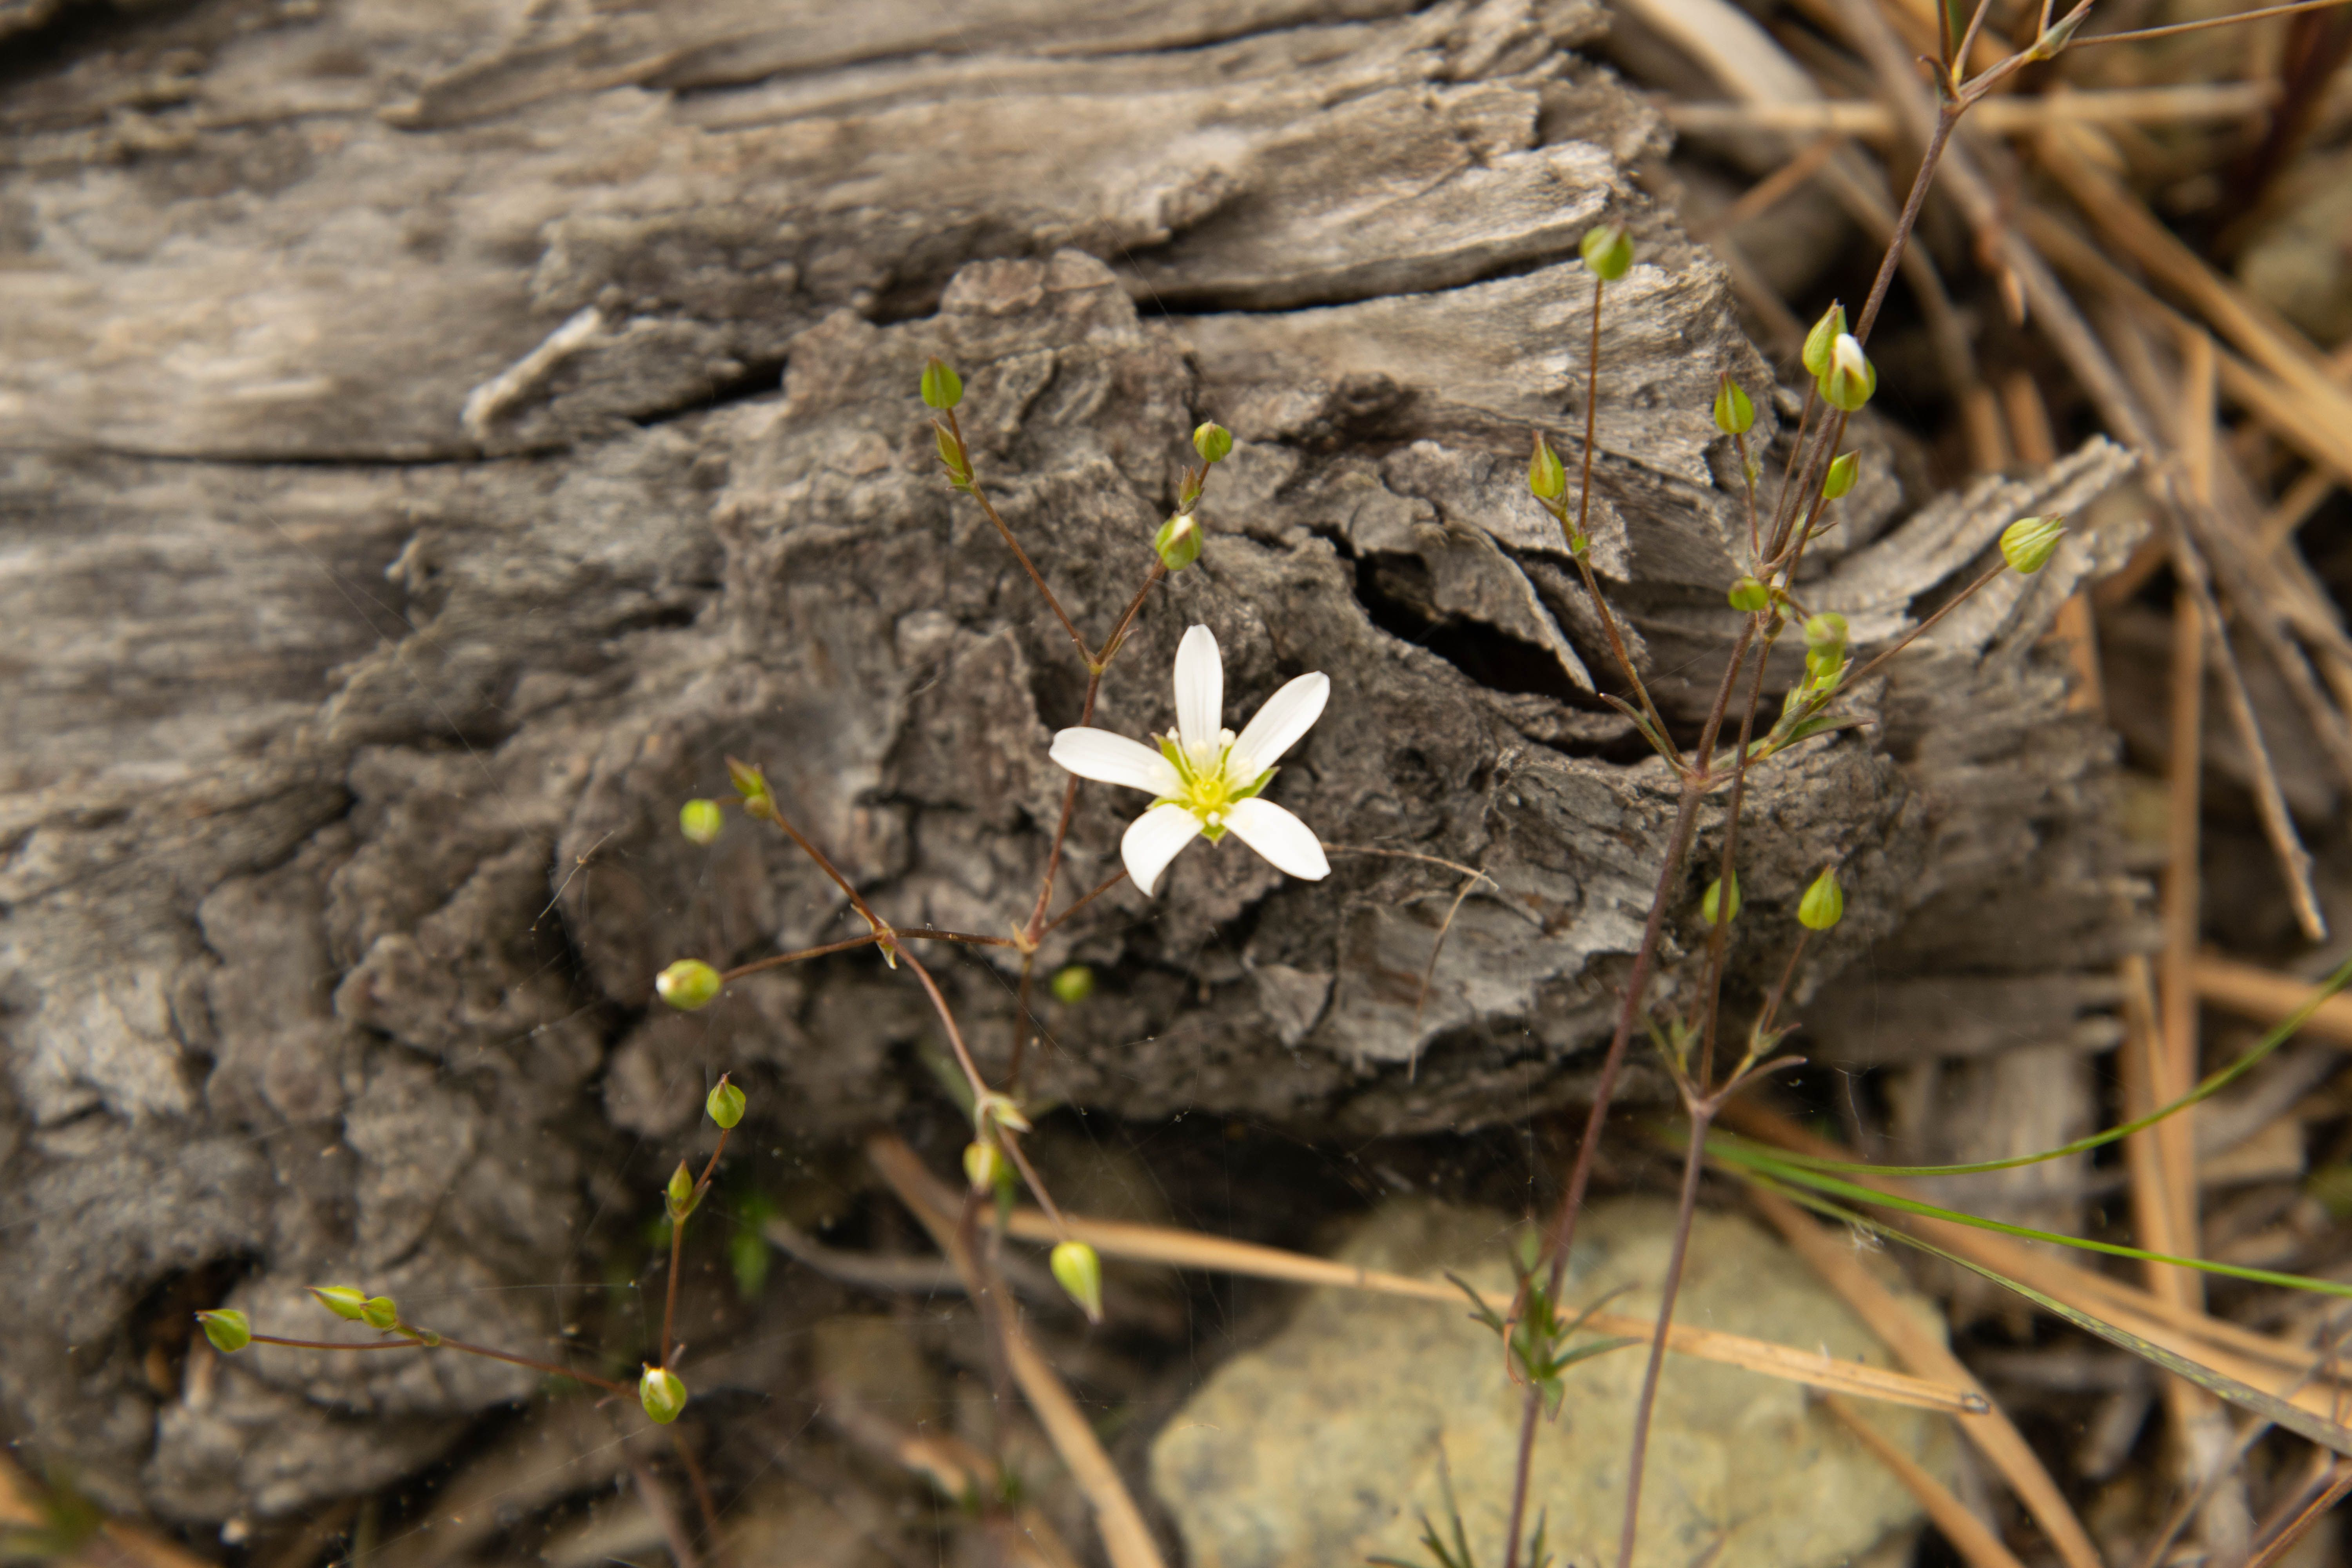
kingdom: Plantae
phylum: Tracheophyta
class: Magnoliopsida
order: Caryophyllales
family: Caryophyllaceae
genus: Sabulina
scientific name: Sabulina michauxii
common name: Michaux's stitchwort
